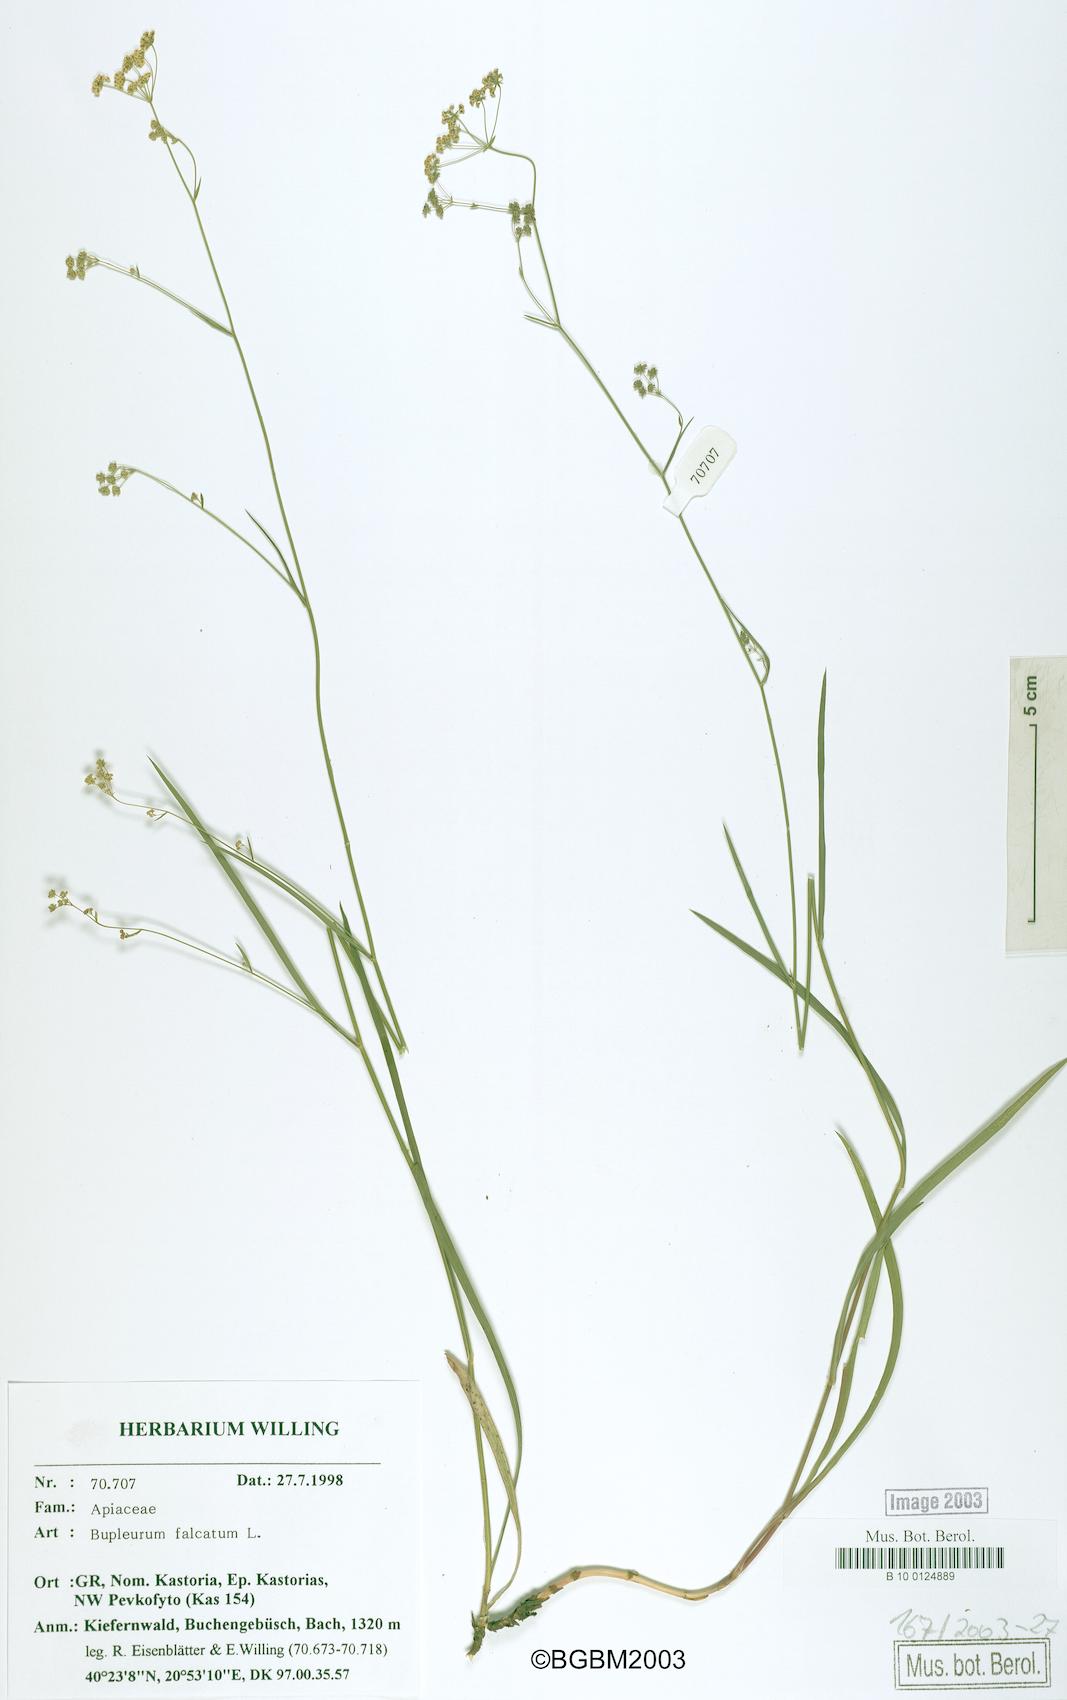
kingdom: Plantae
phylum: Tracheophyta
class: Magnoliopsida
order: Apiales
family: Apiaceae
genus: Bupleurum
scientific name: Bupleurum falcatum
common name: Sickle-leaved hare's-ear
